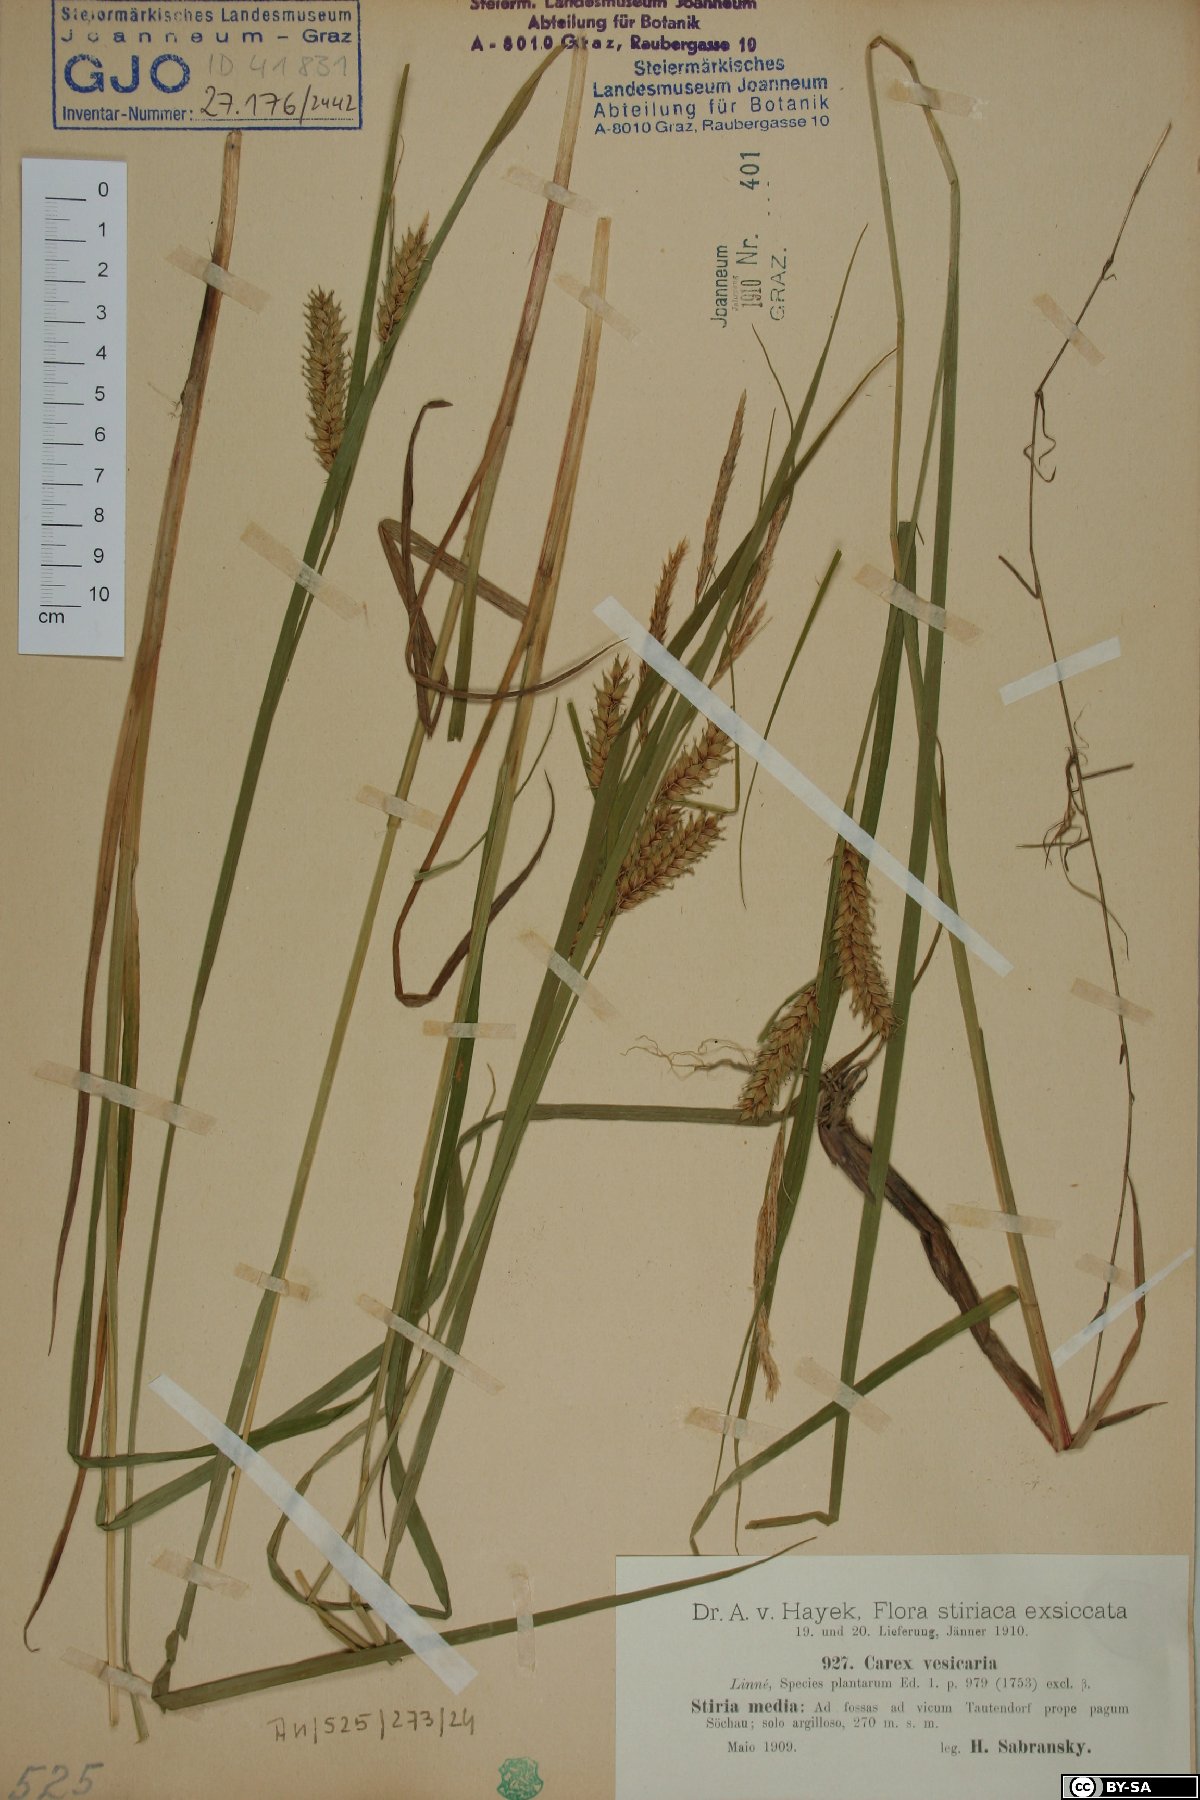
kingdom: Plantae
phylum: Tracheophyta
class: Liliopsida
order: Poales
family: Cyperaceae
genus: Carex
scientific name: Carex vesicaria
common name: Bladder-sedge
